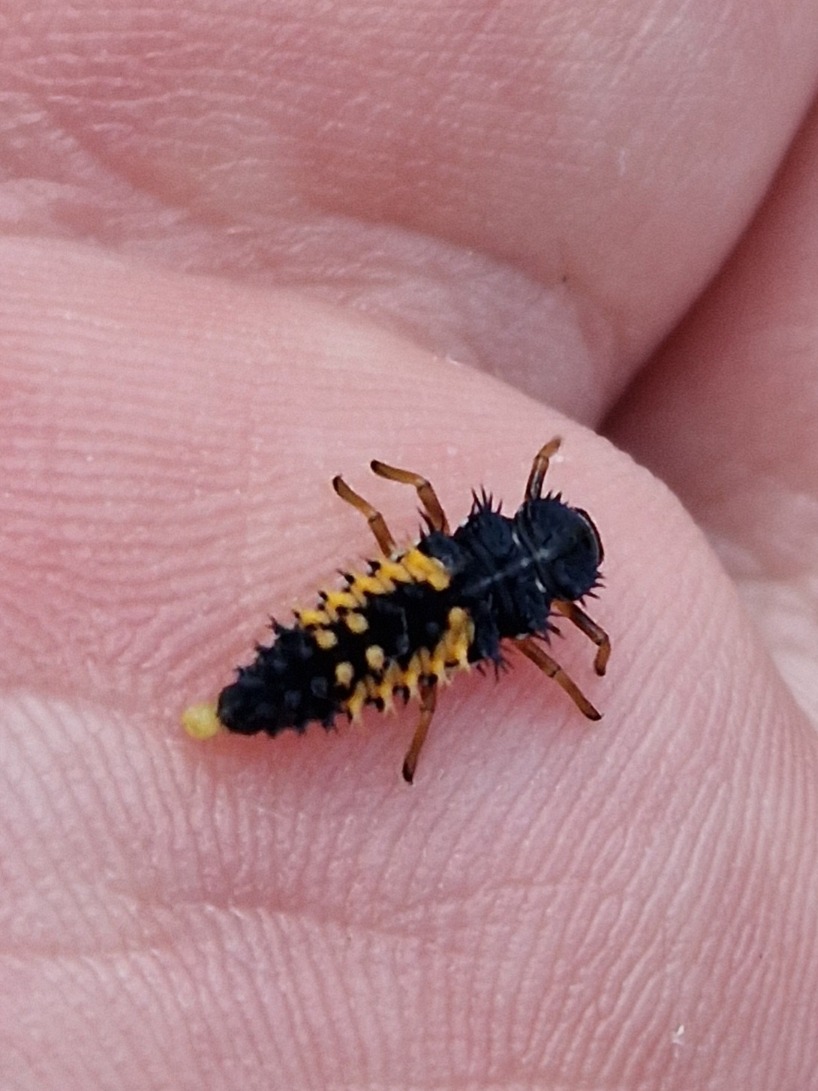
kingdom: Animalia
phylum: Arthropoda
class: Insecta
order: Coleoptera
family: Coccinellidae
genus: Harmonia
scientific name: Harmonia axyridis
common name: Harlekinmariehøne
